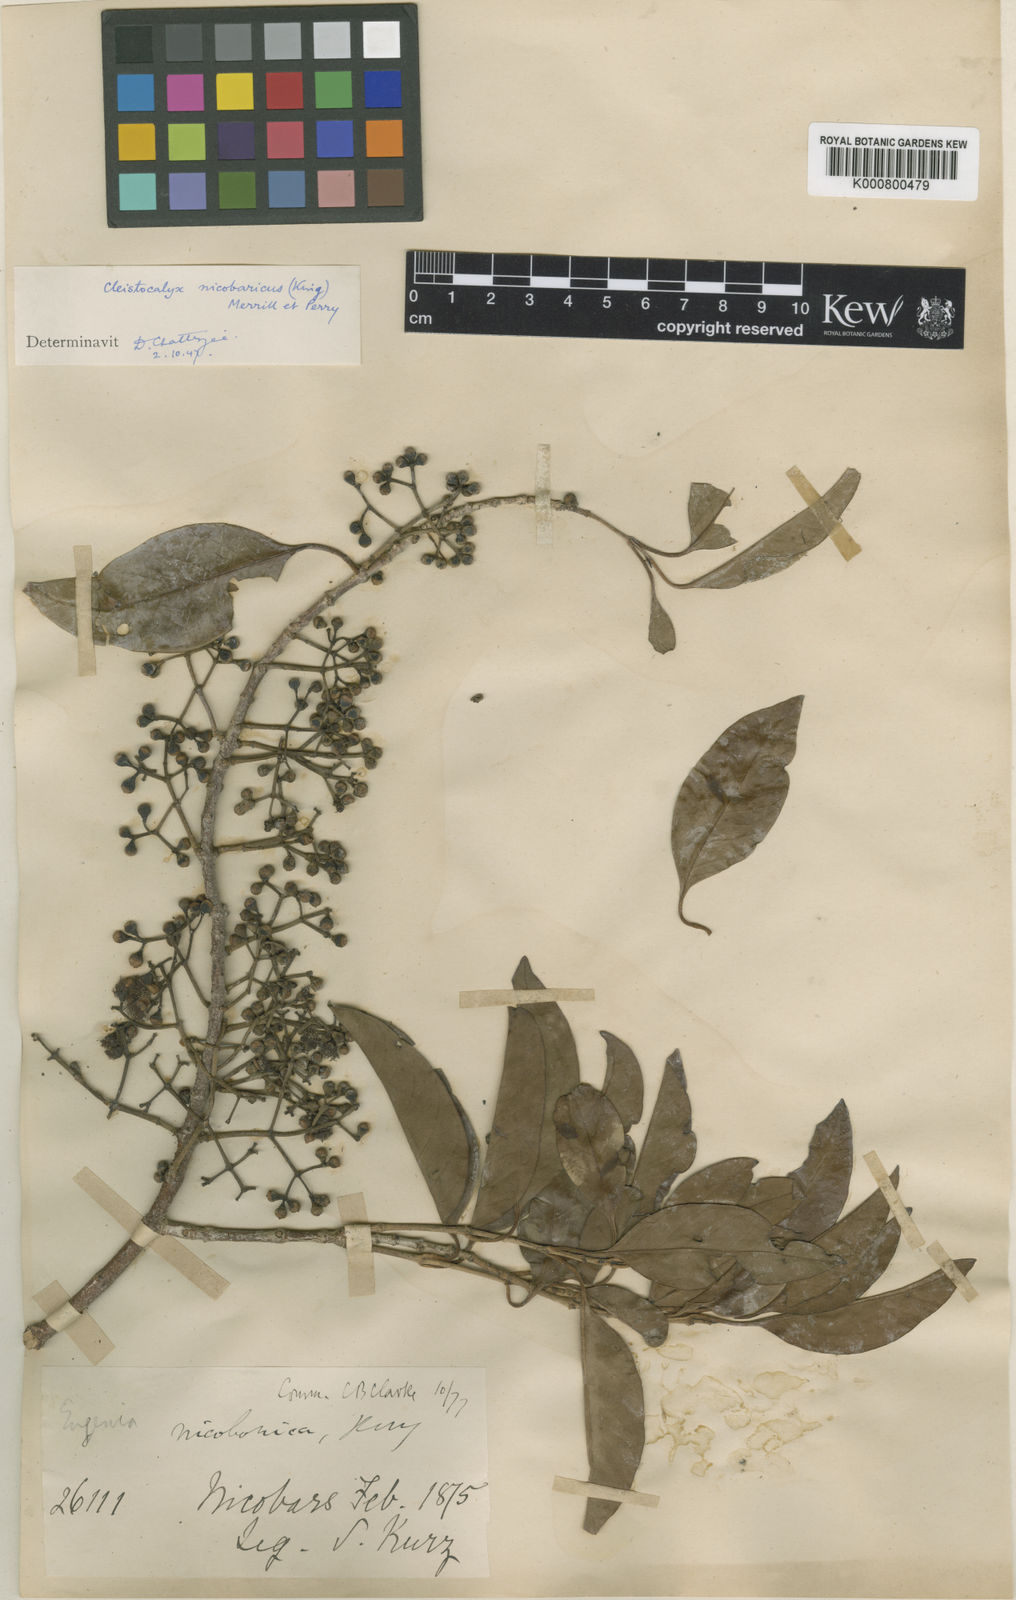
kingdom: Plantae
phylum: Tracheophyta
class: Magnoliopsida
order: Myrtales
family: Myrtaceae
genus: Syzygium
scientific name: Syzygium nicobaricum
